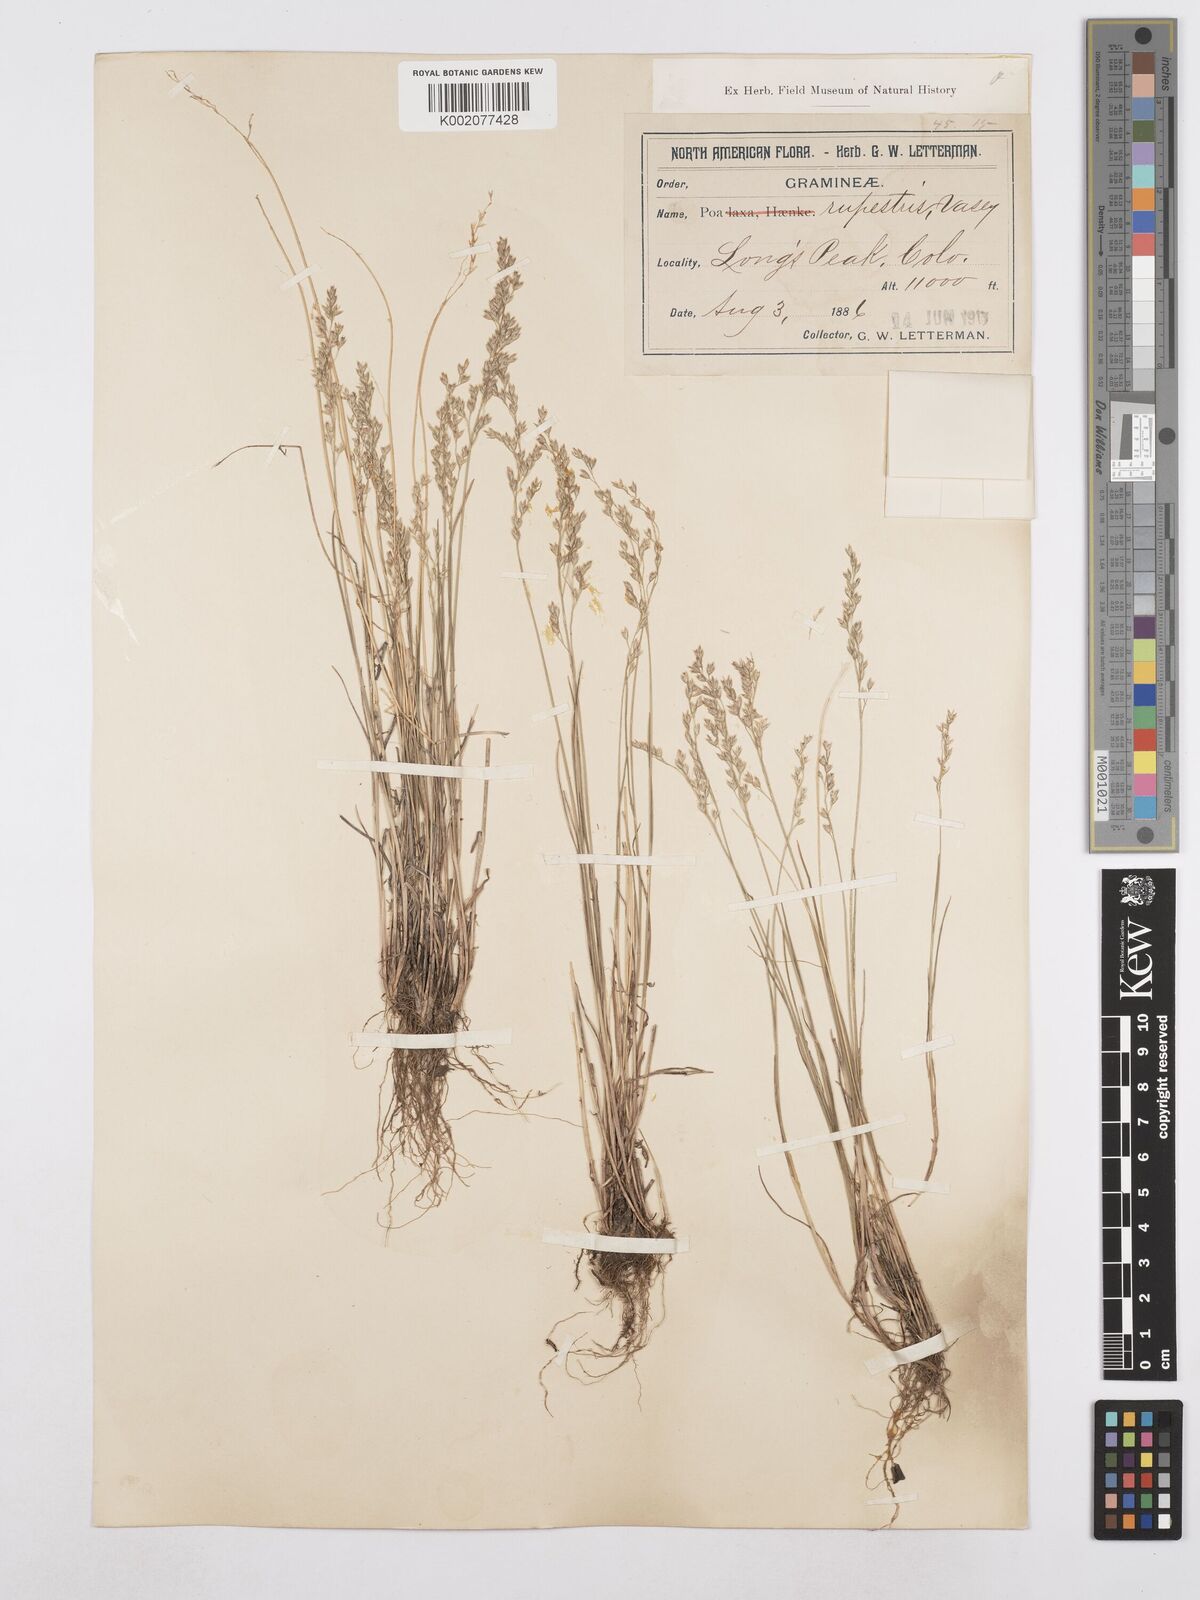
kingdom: Plantae
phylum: Tracheophyta
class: Liliopsida
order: Poales
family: Poaceae
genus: Poa
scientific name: Poa glauca
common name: Glaucous bluegrass
